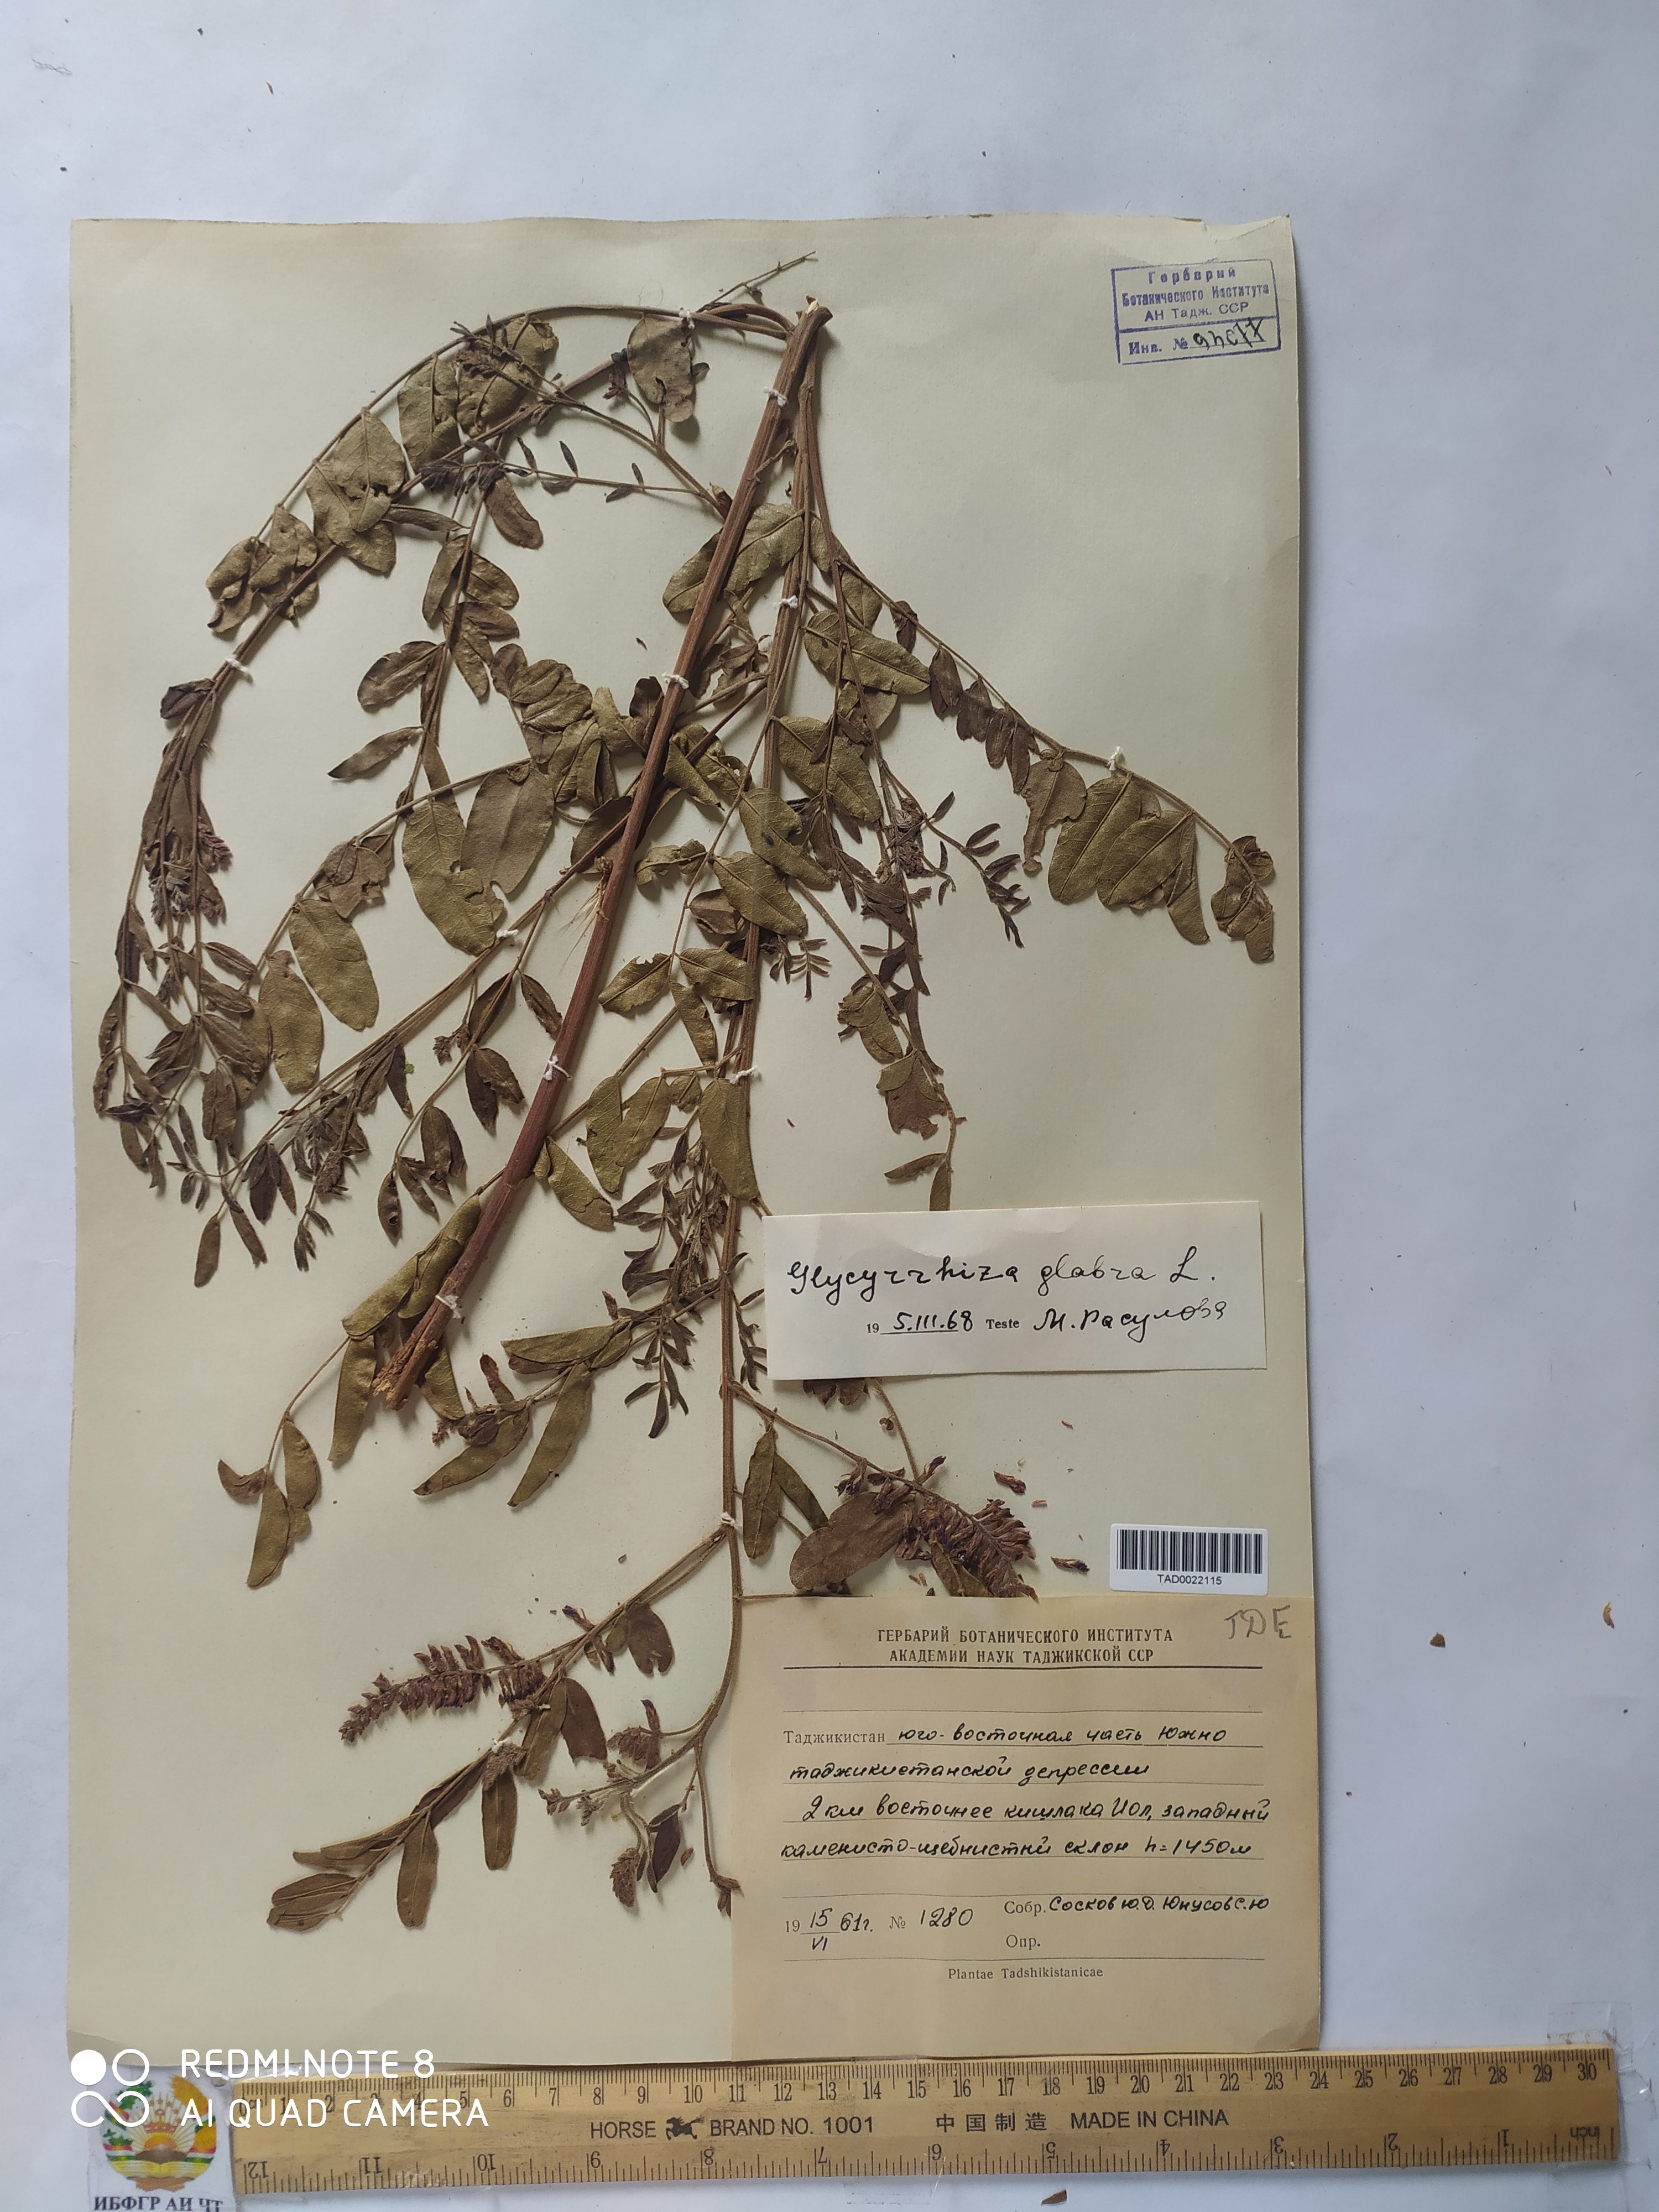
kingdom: Plantae
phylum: Tracheophyta
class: Magnoliopsida
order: Fabales
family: Fabaceae
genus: Glycyrrhiza
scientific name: Glycyrrhiza glabra
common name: Liquorice
